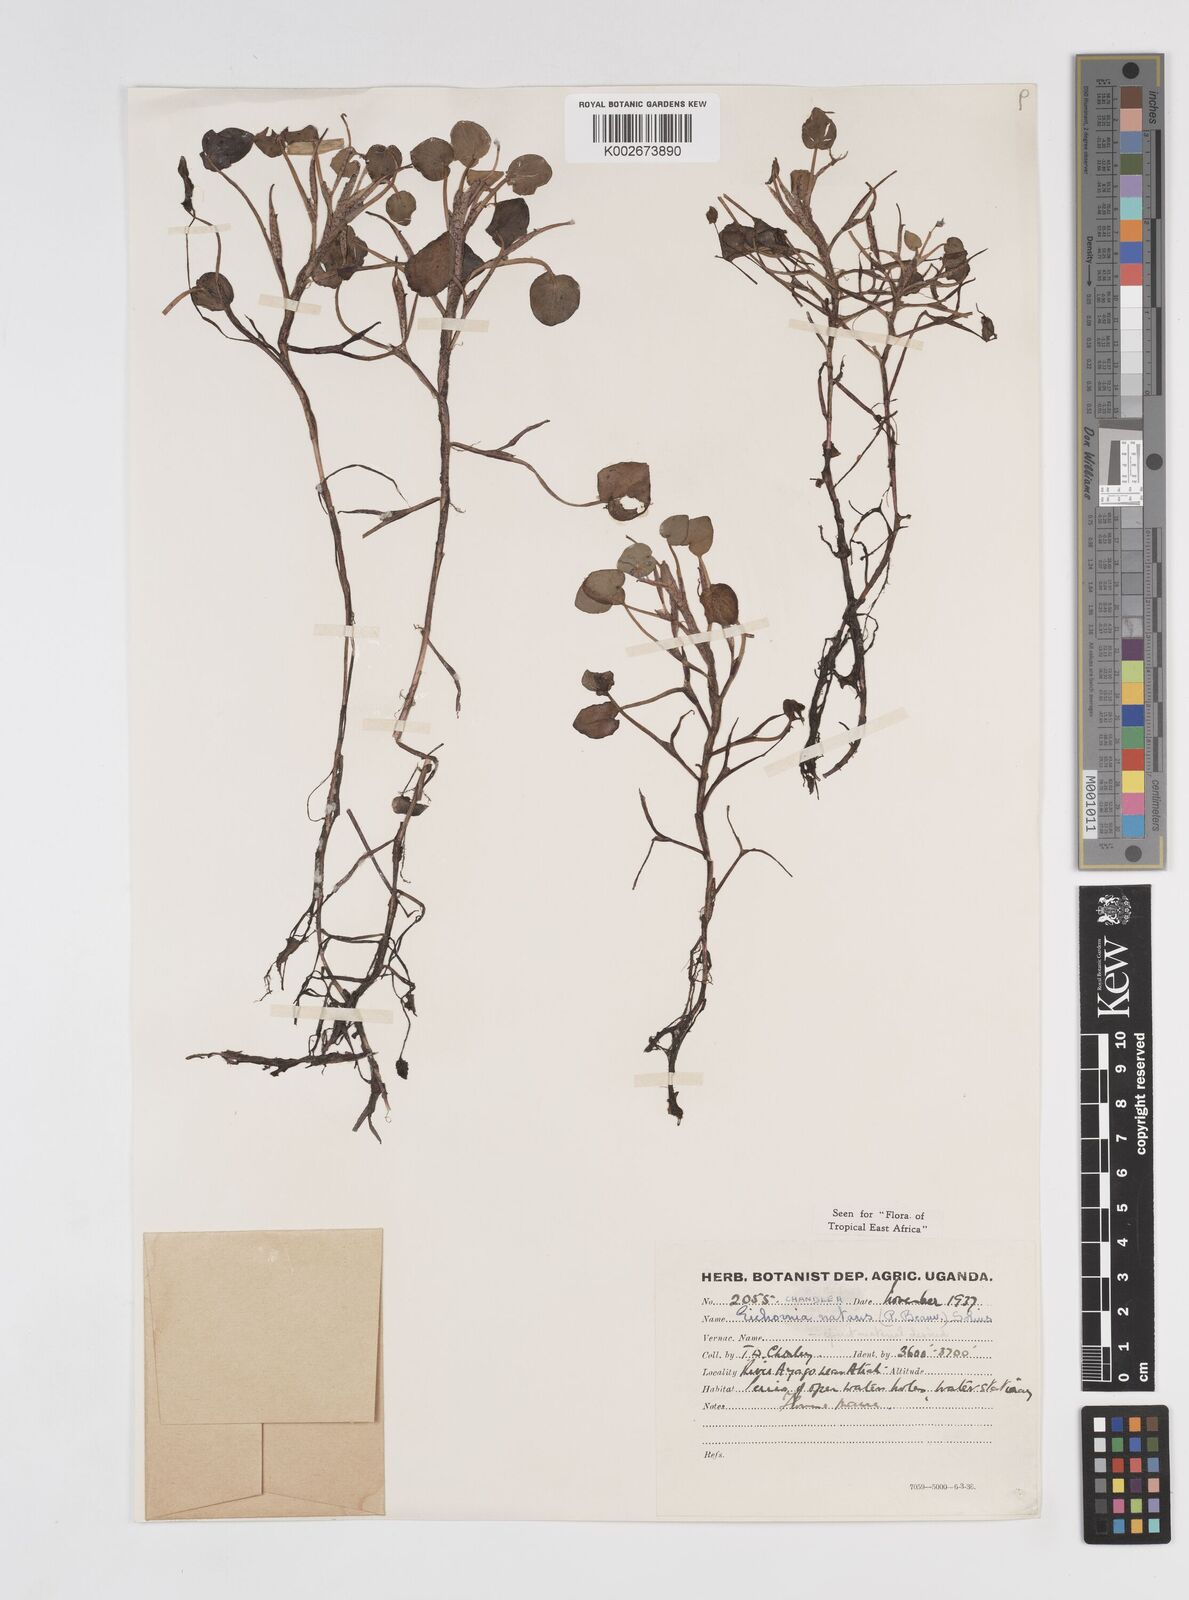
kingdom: Plantae
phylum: Tracheophyta
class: Liliopsida
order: Commelinales
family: Pontederiaceae
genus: Pontederia
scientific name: Pontederia diversifolia
